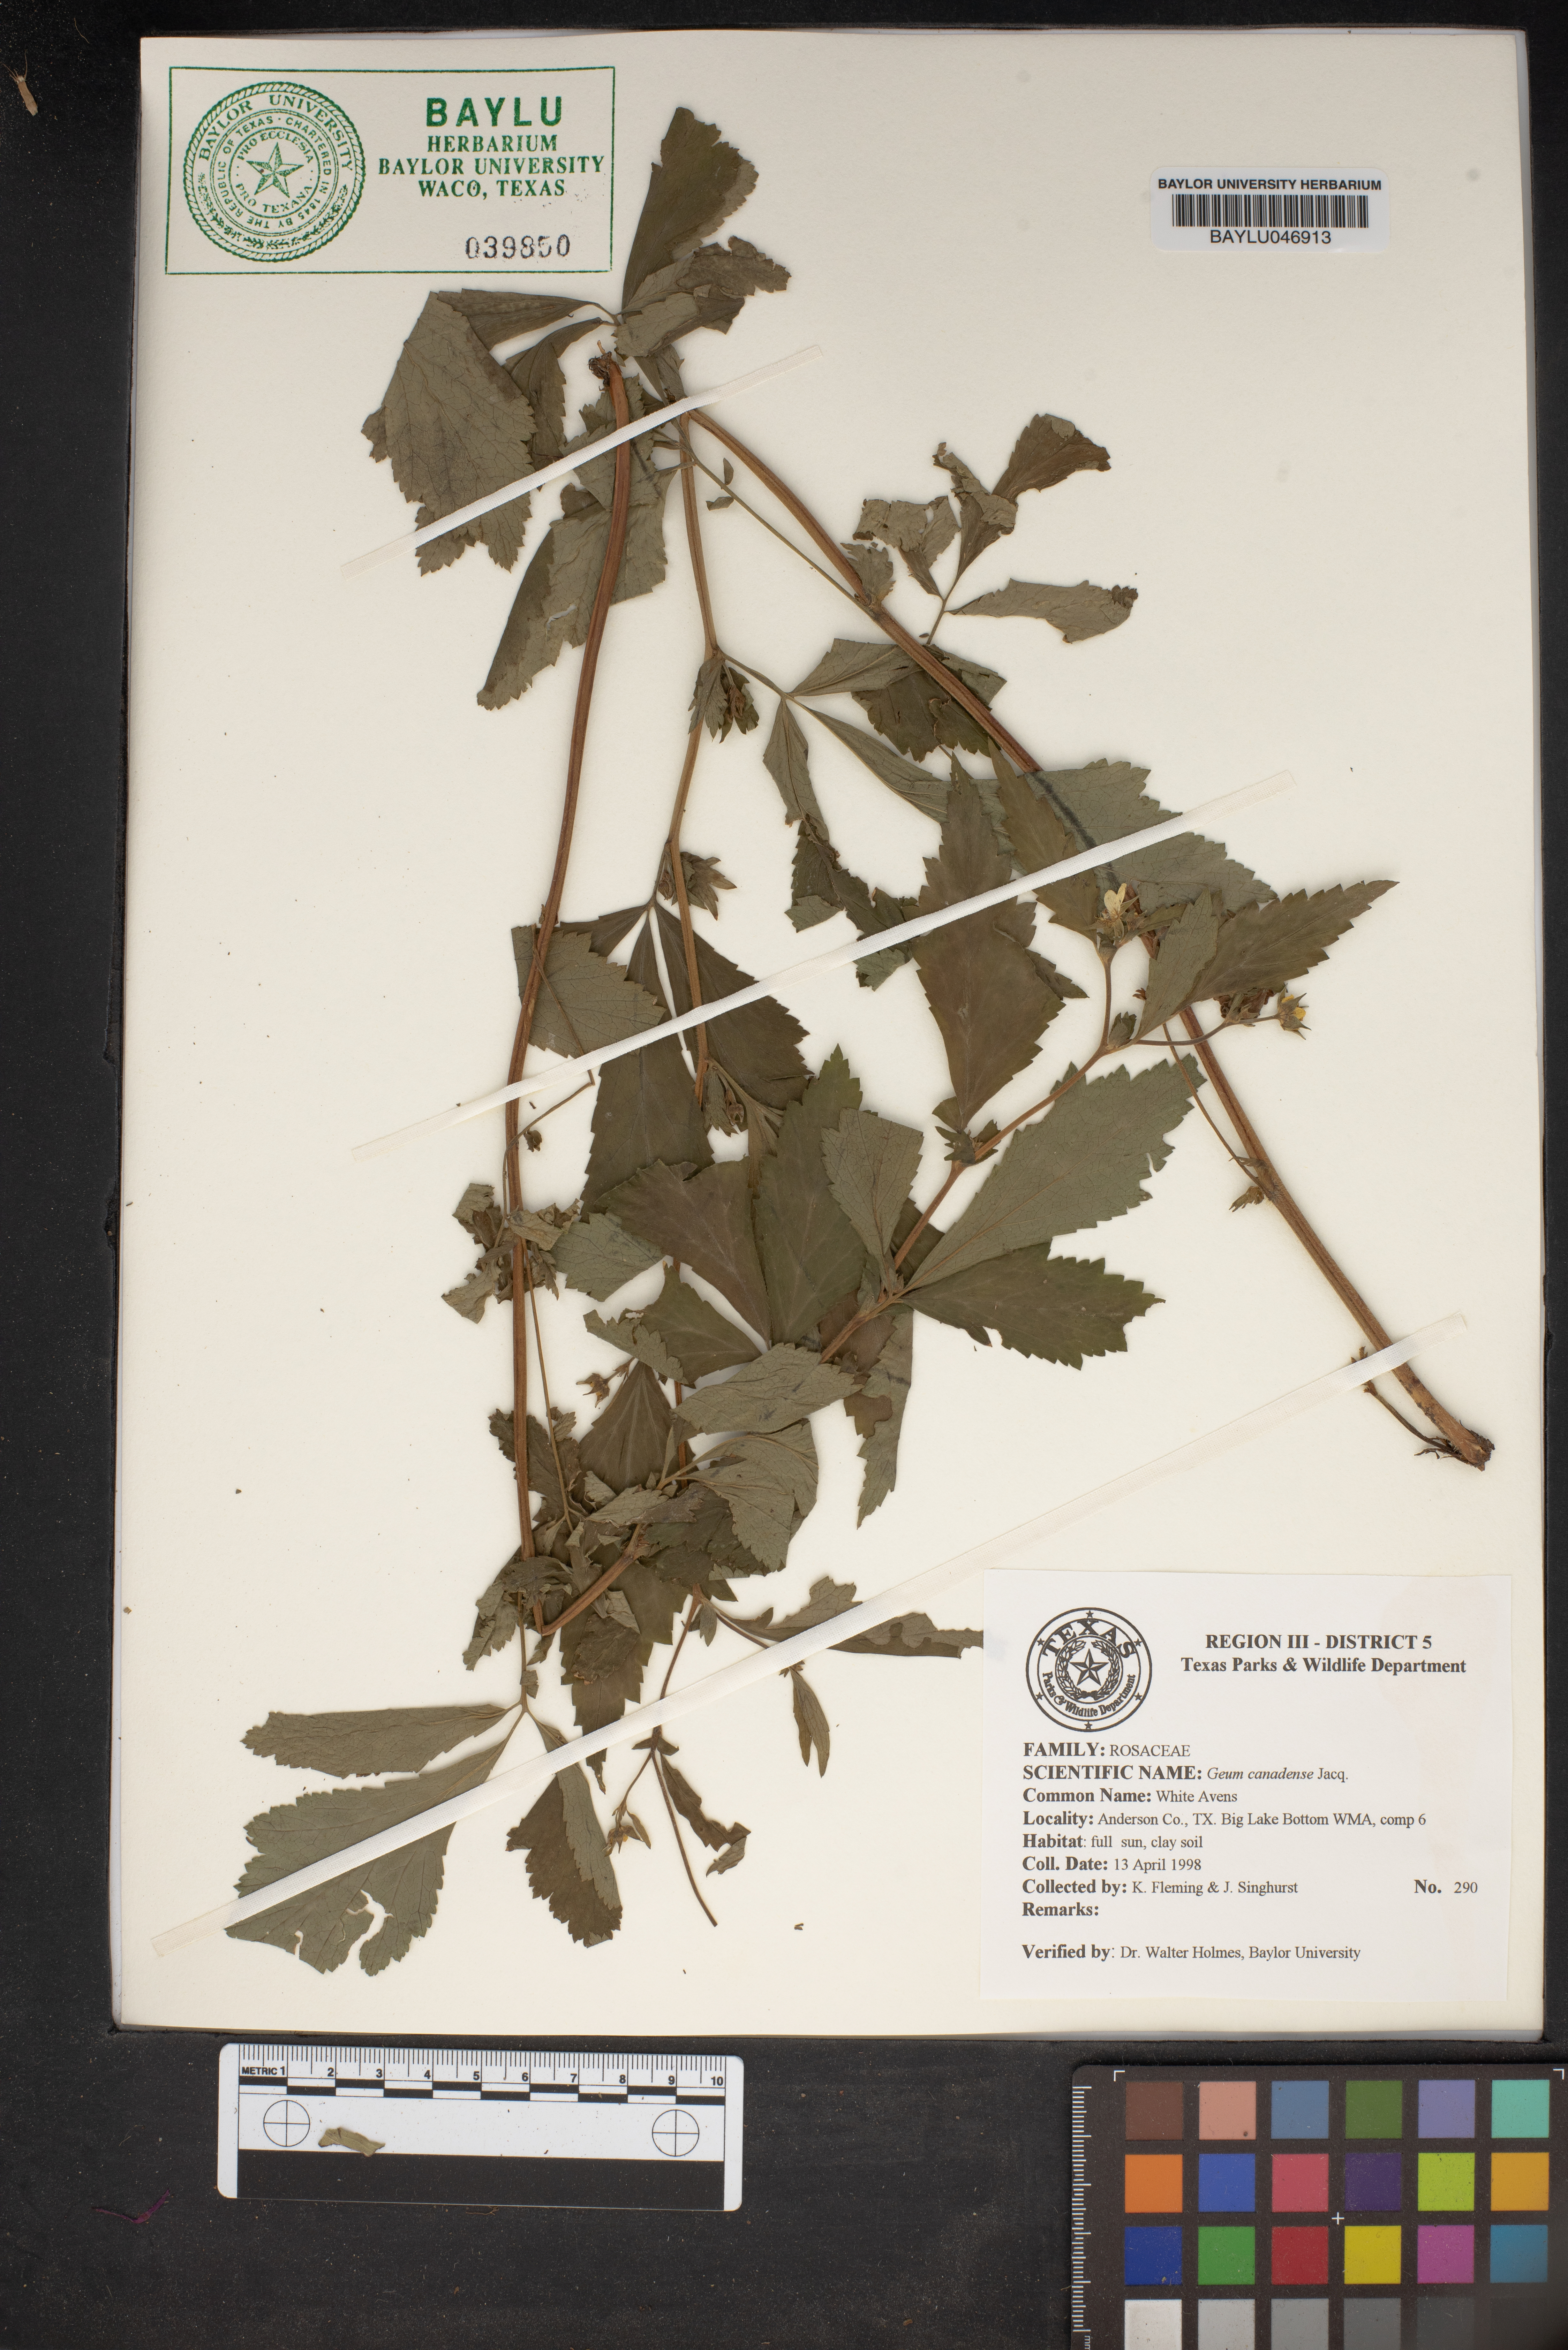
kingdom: Plantae
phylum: Tracheophyta
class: Magnoliopsida
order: Rosales
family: Rosaceae
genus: Geum
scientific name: Geum canadense
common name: White avens
